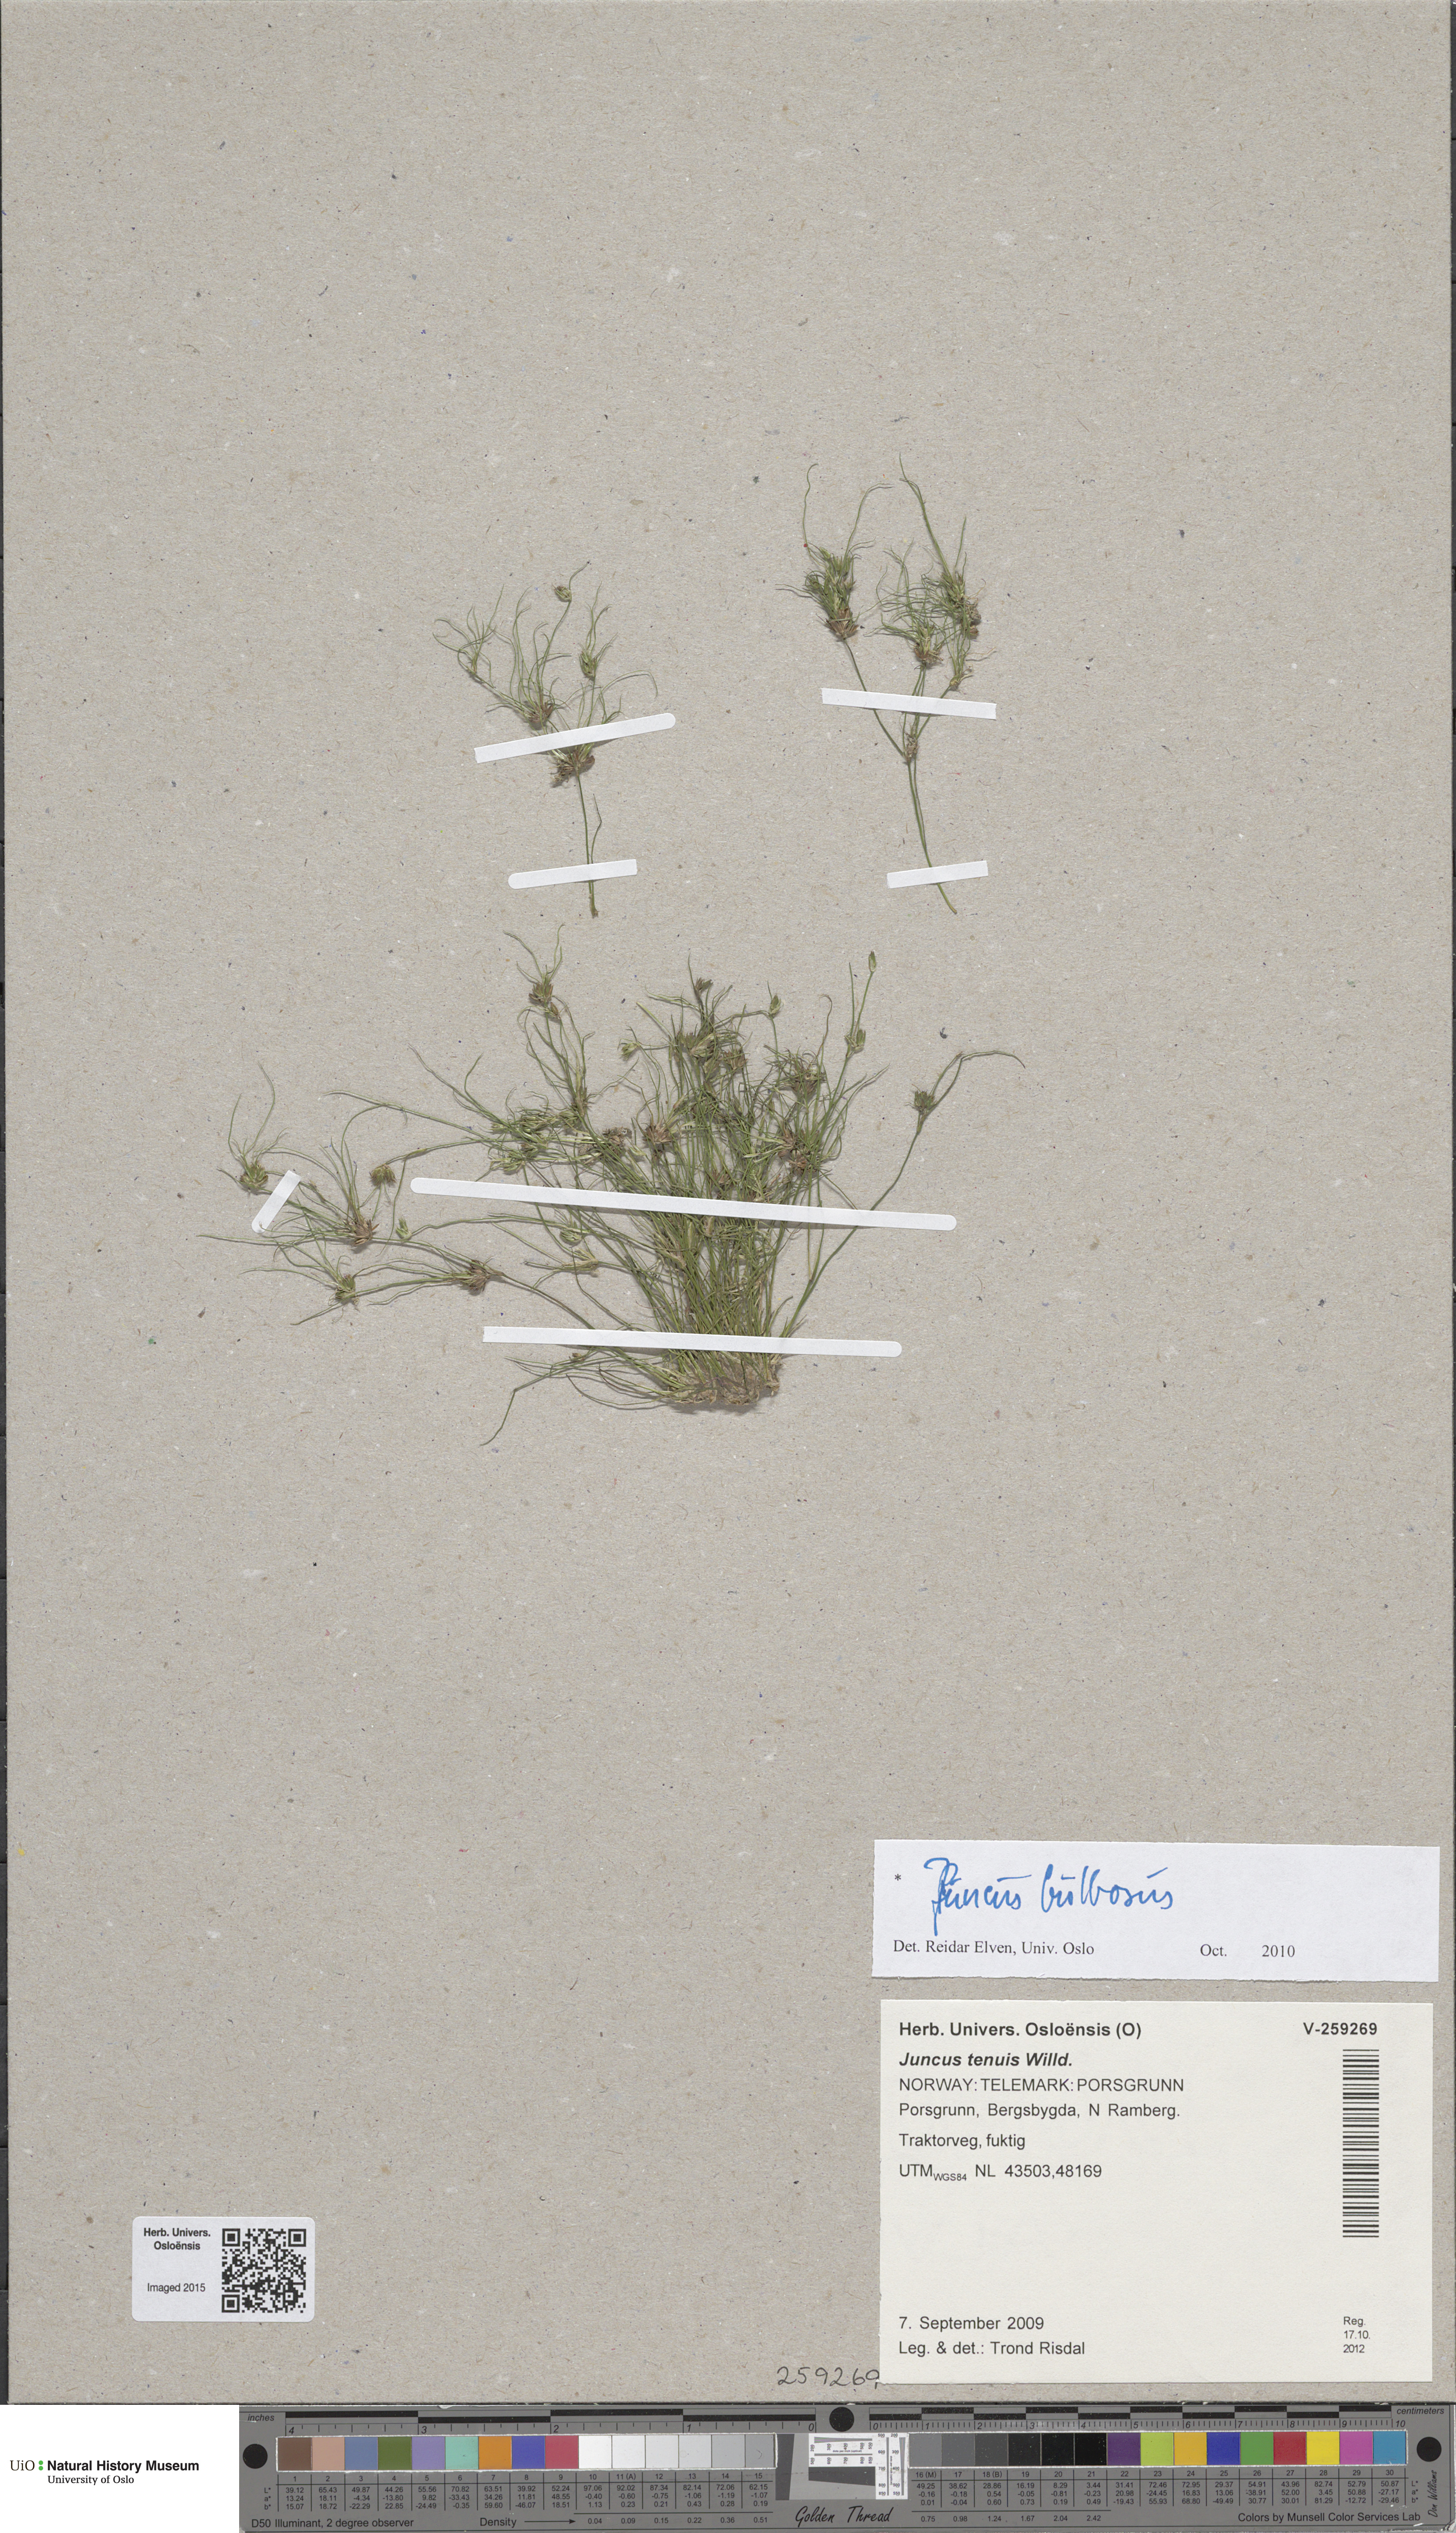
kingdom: Plantae
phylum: Tracheophyta
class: Liliopsida
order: Poales
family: Juncaceae
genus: Juncus
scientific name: Juncus bulbosus
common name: Bulbous rush
